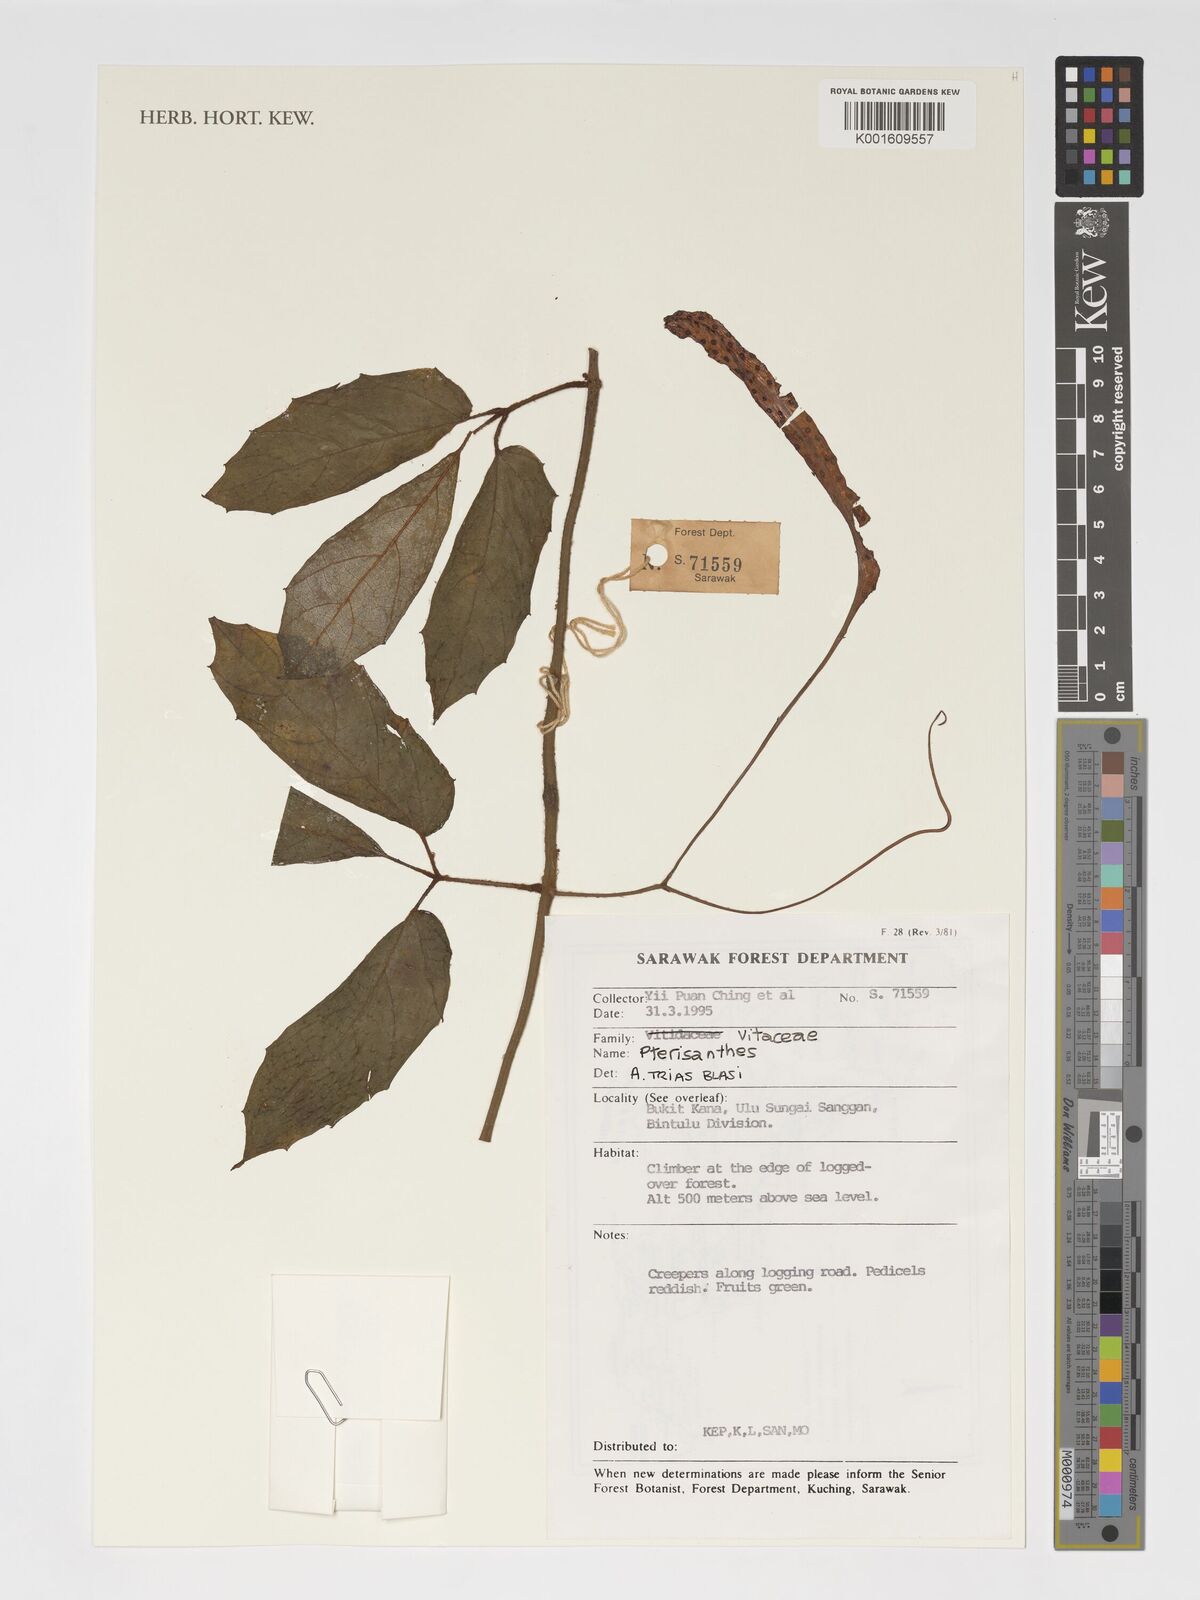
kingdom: Plantae
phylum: Tracheophyta
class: Magnoliopsida
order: Vitales
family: Vitaceae
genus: Pterisanthes
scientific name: Pterisanthes
